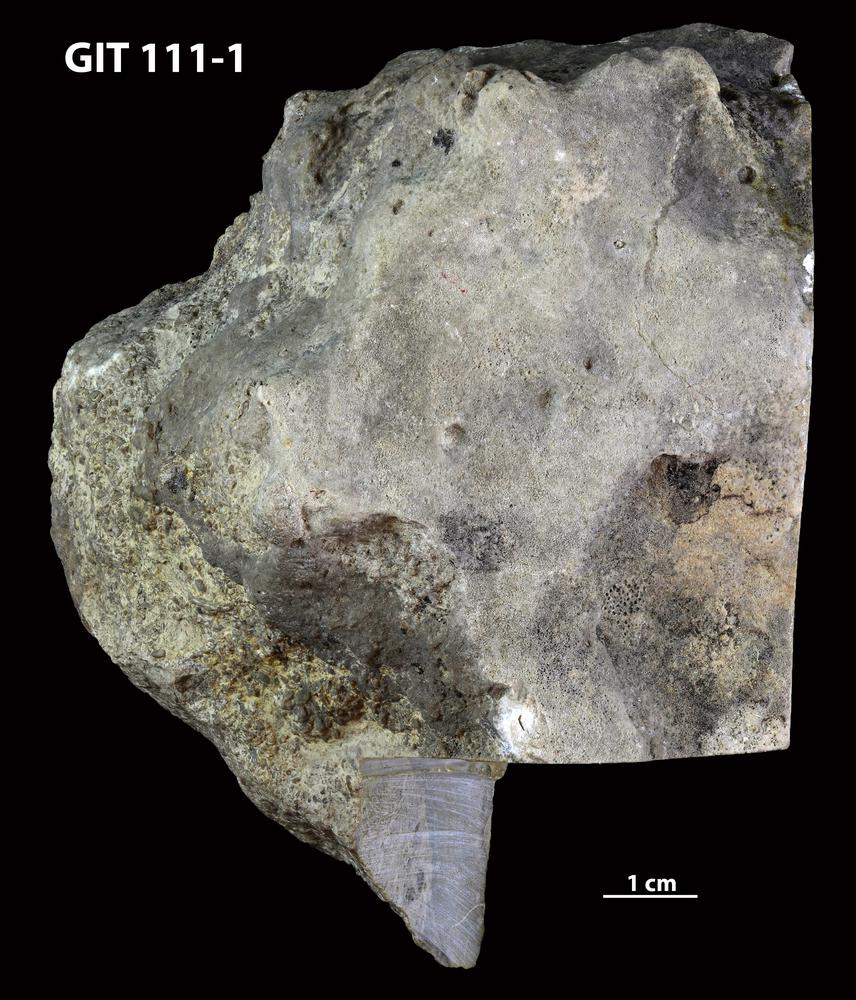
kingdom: Animalia
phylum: Porifera
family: Pseudolabechiidae
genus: Plumatalinia
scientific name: Plumatalinia ferax
